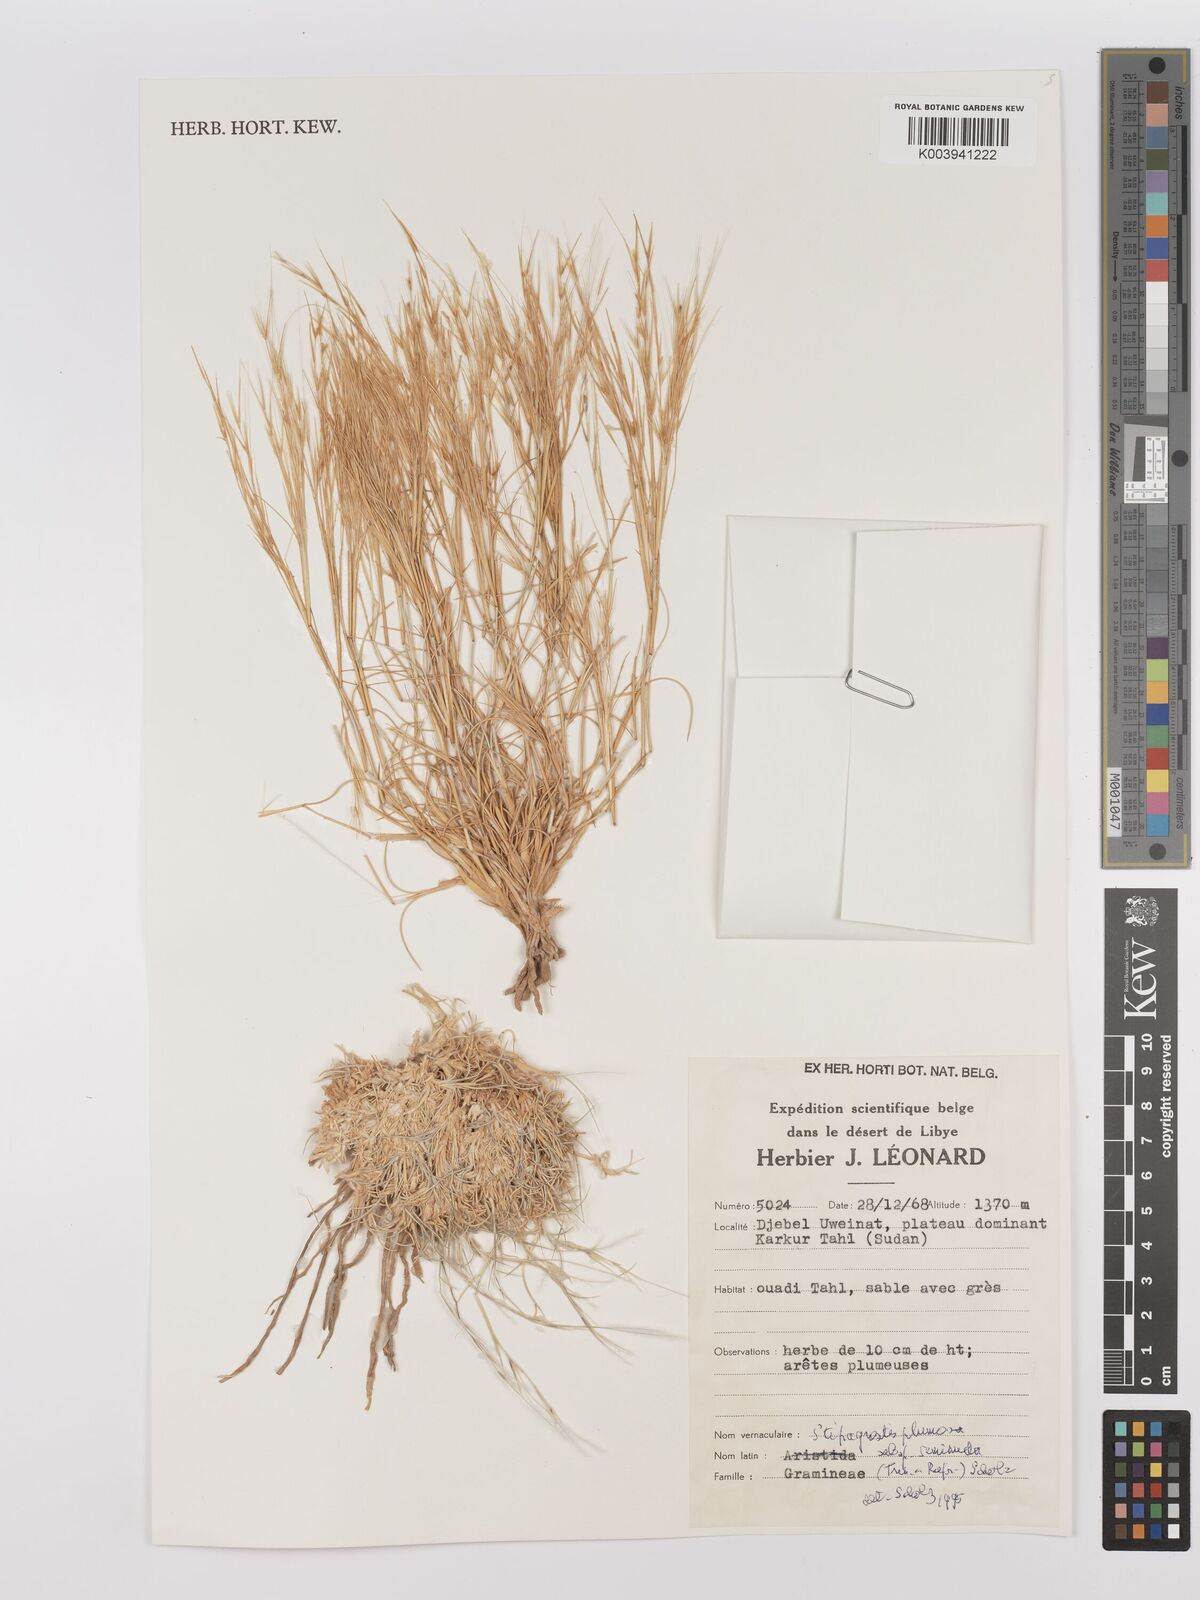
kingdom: Plantae
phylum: Tracheophyta
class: Liliopsida
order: Poales
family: Poaceae
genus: Stipagrostis
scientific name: Stipagrostis plumosa
